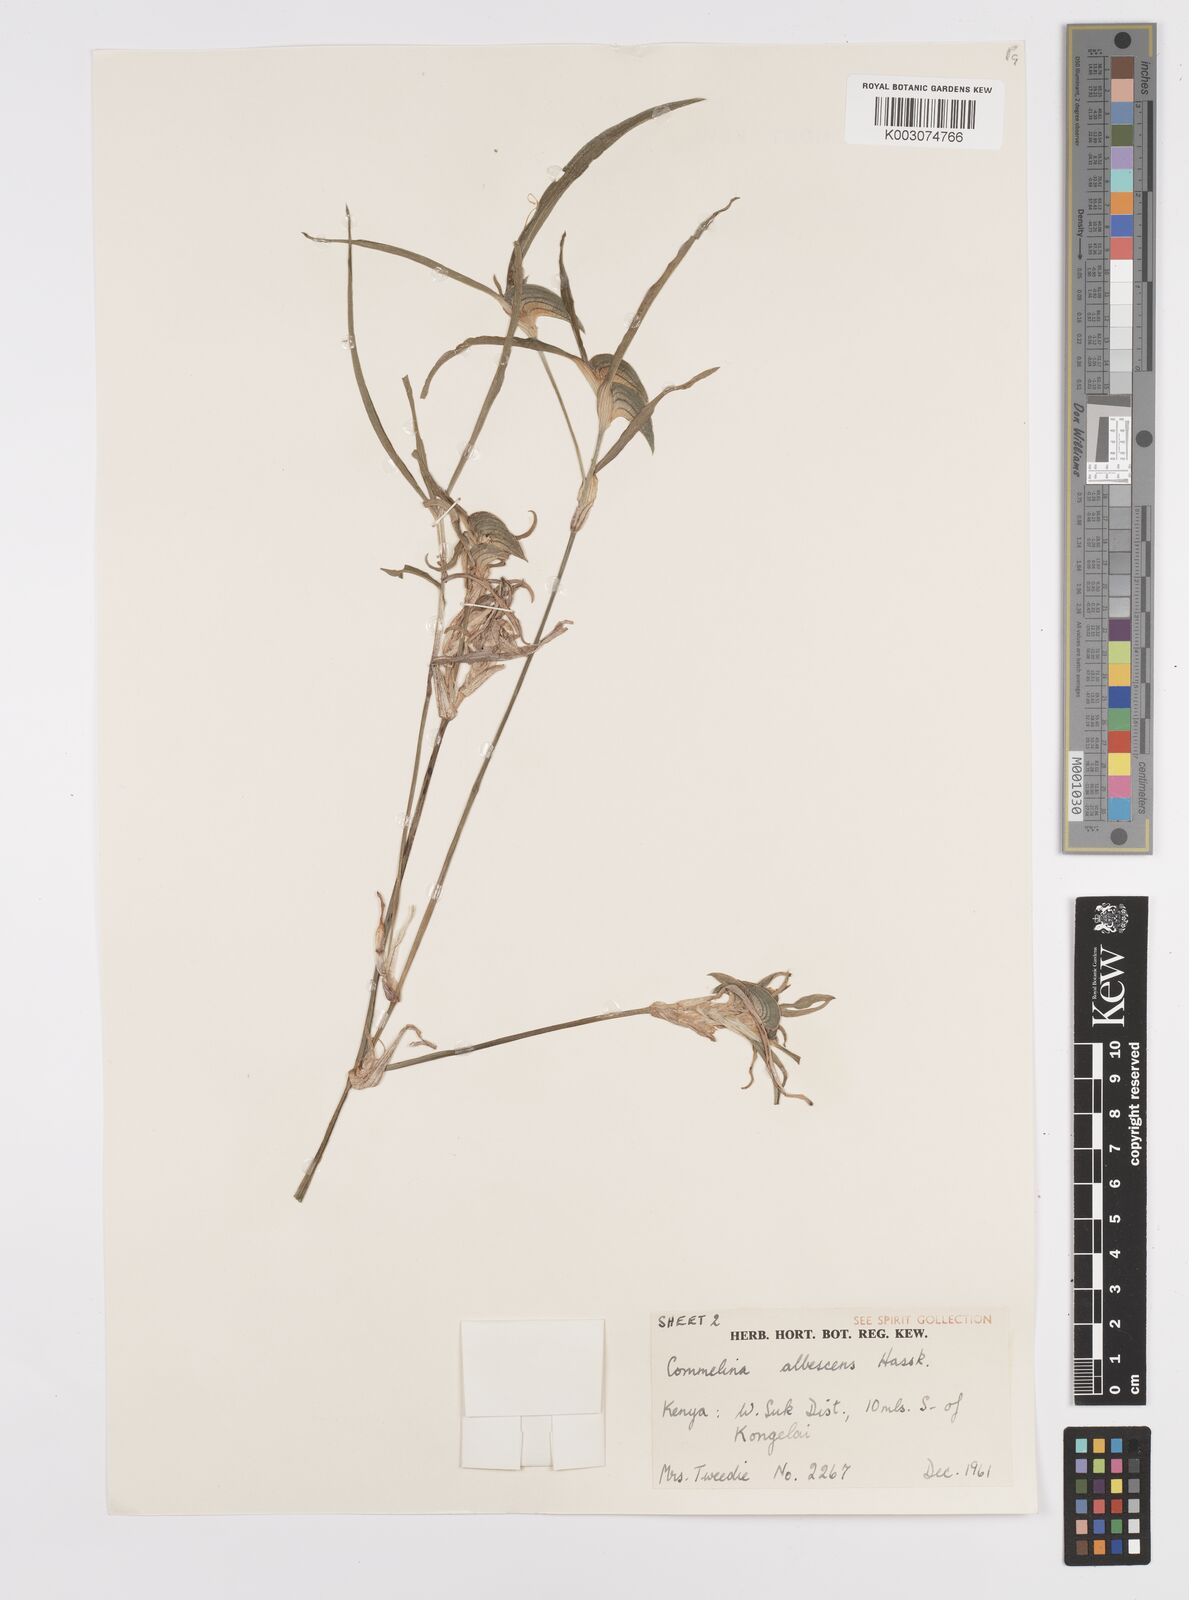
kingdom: Plantae
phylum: Tracheophyta
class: Liliopsida
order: Commelinales
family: Commelinaceae
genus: Commelina
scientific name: Commelina albescens
